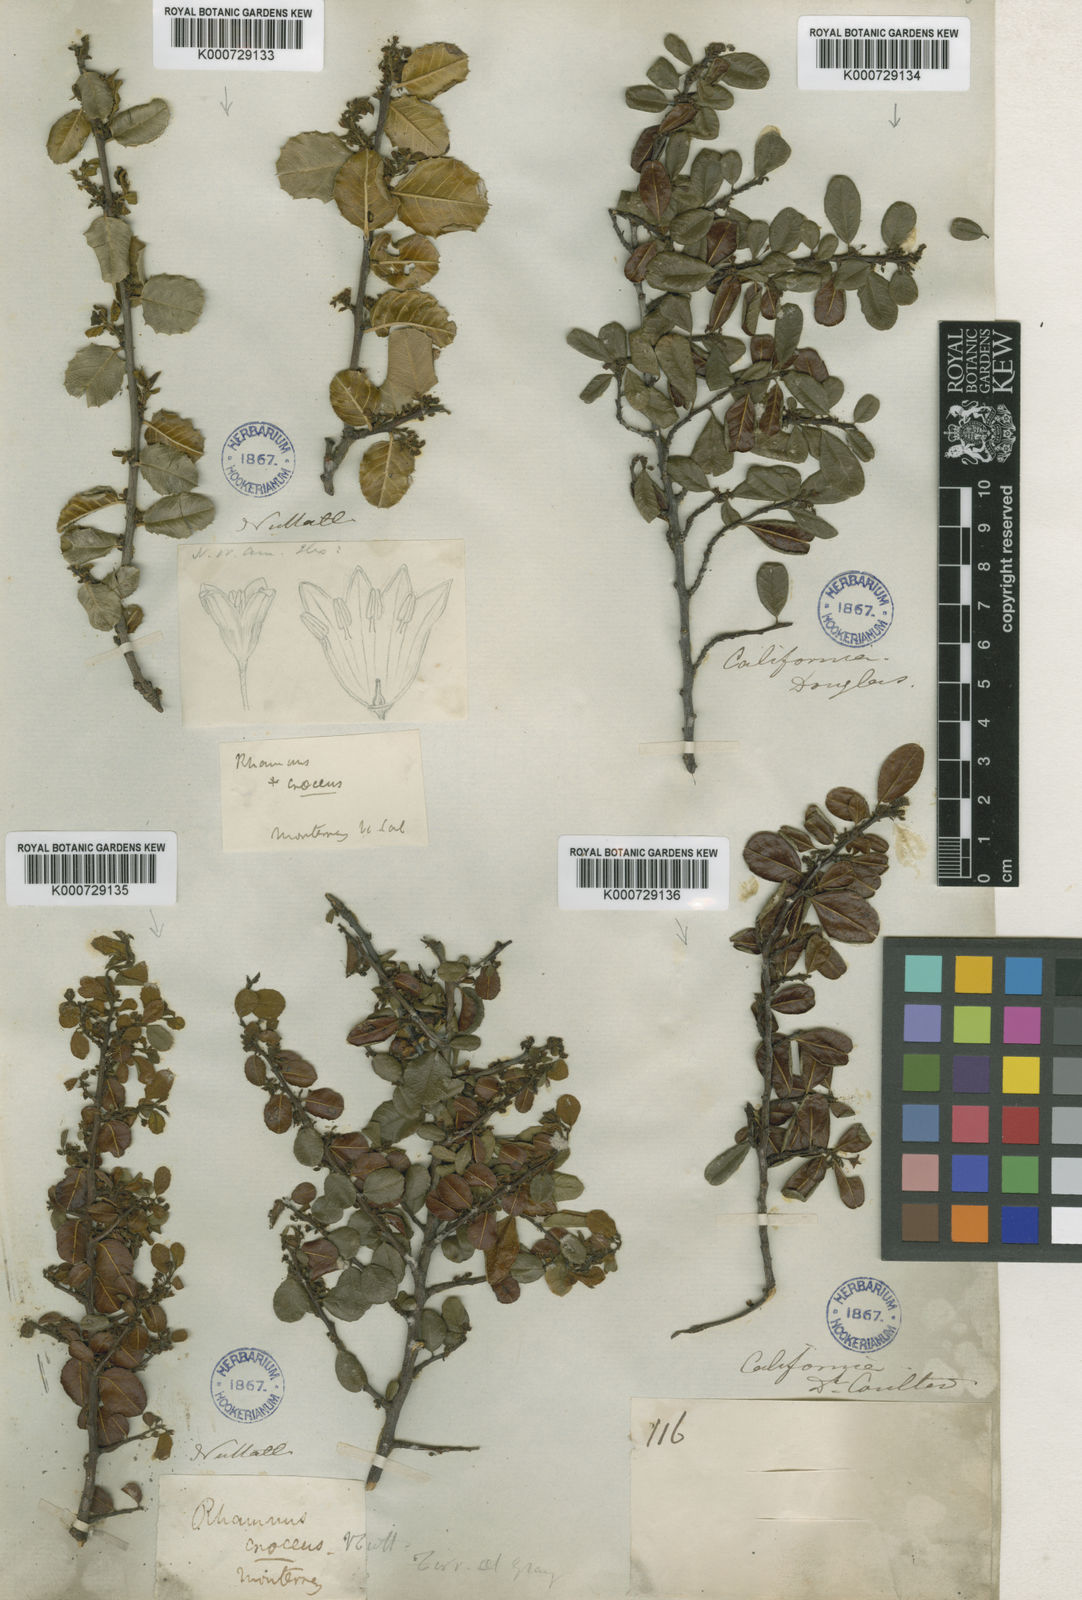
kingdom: Plantae
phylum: Tracheophyta
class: Magnoliopsida
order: Rosales
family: Rhamnaceae
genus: Endotropis
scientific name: Endotropis crocea
